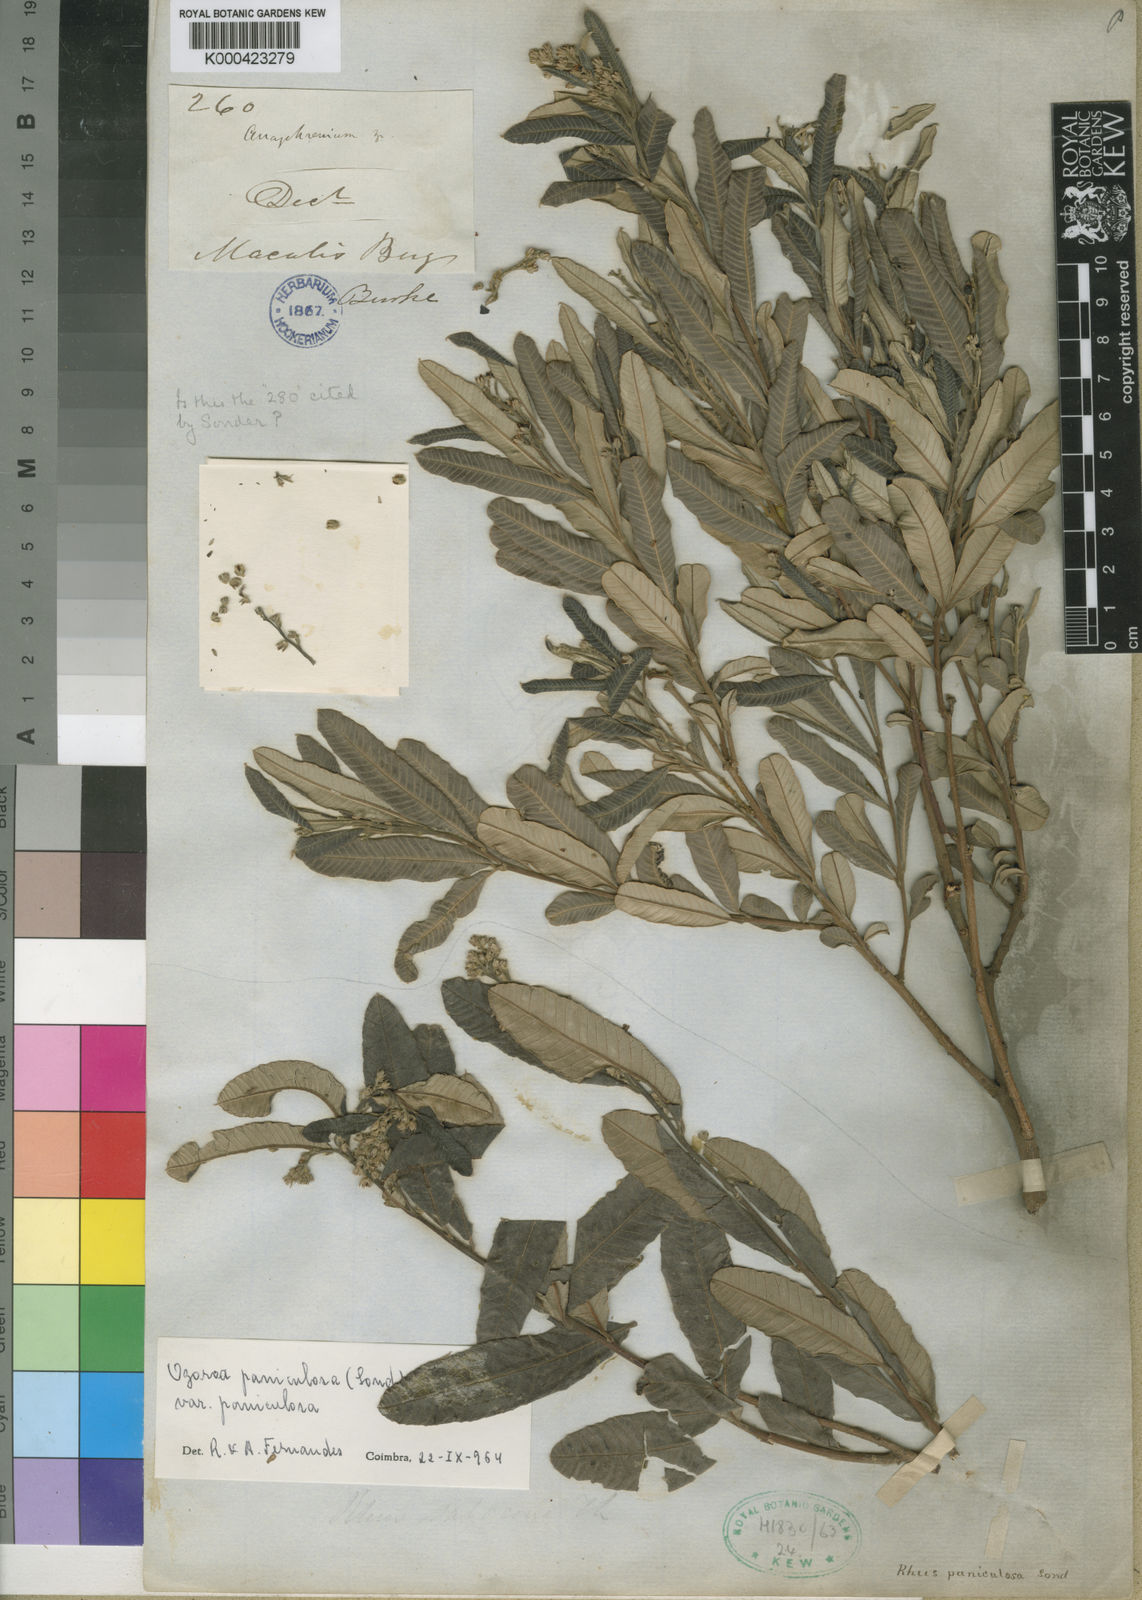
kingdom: Plantae
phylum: Tracheophyta
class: Magnoliopsida
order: Sapindales
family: Anacardiaceae
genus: Ozoroa
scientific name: Ozoroa paniculosa
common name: Bushveld ozoroa
